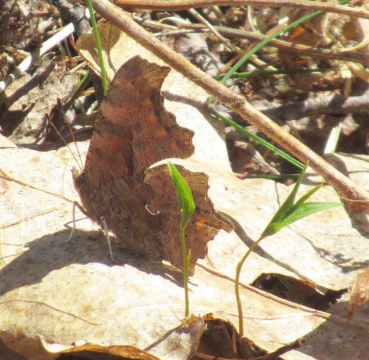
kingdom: Animalia
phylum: Arthropoda
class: Insecta
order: Lepidoptera
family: Nymphalidae
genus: Polygonia
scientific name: Polygonia comma
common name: Eastern Comma
